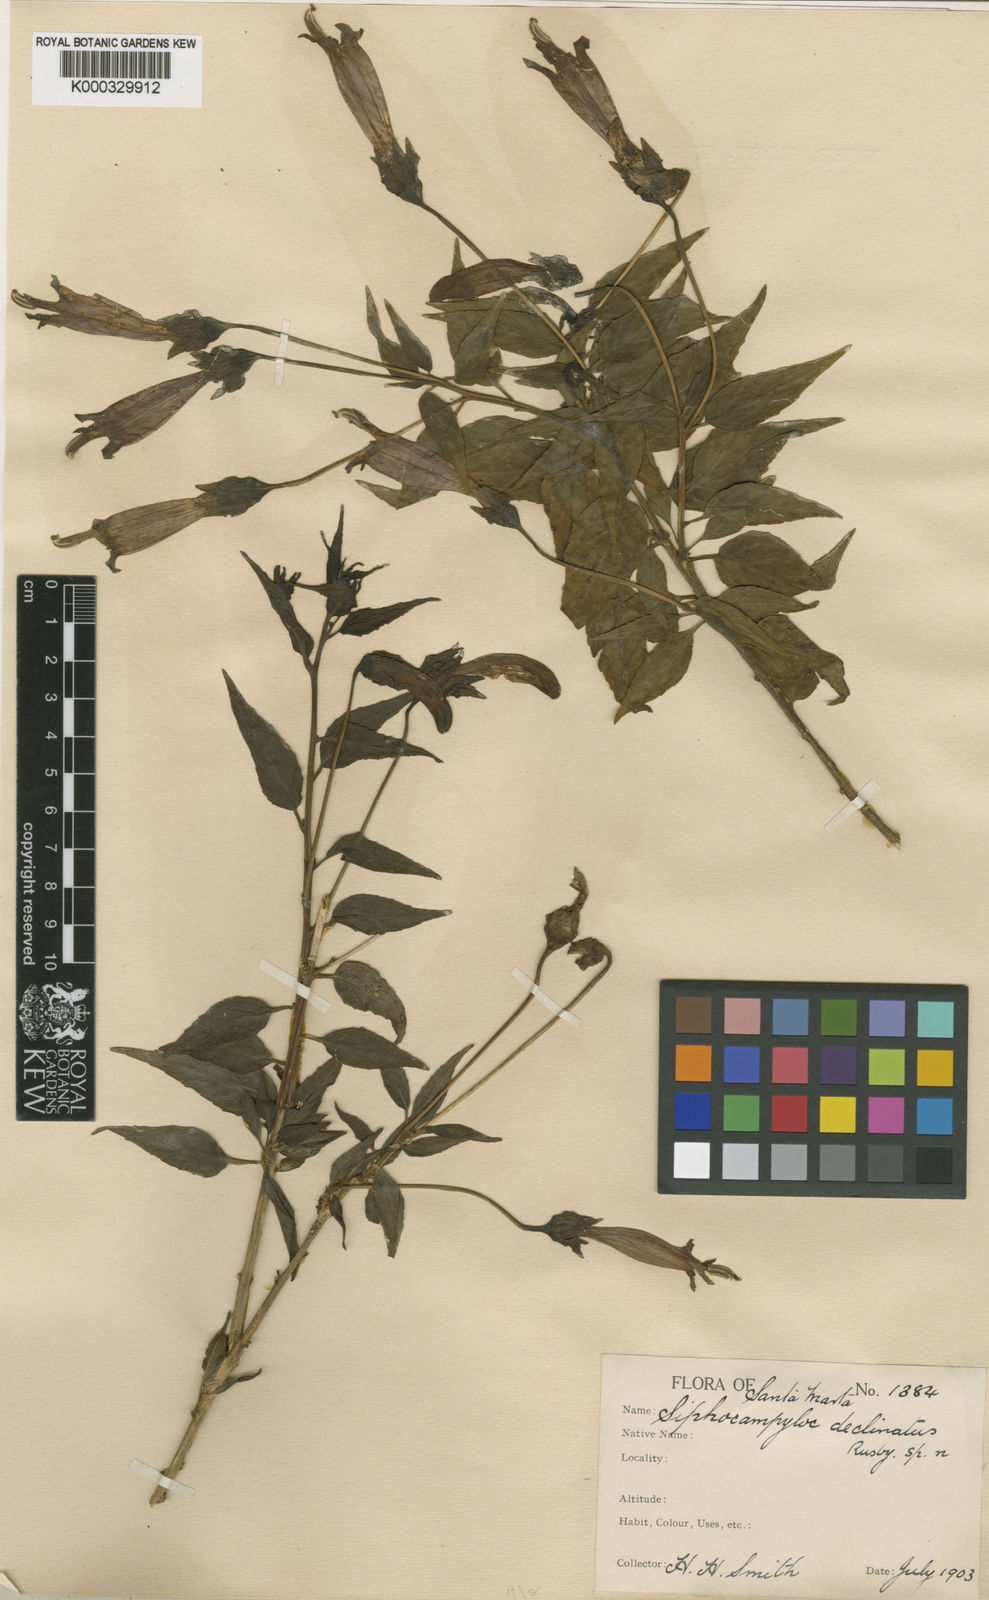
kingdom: Plantae
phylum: Tracheophyta
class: Magnoliopsida
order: Asterales
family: Campanulaceae
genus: Siphocampylus
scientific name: Siphocampylus declinatus
